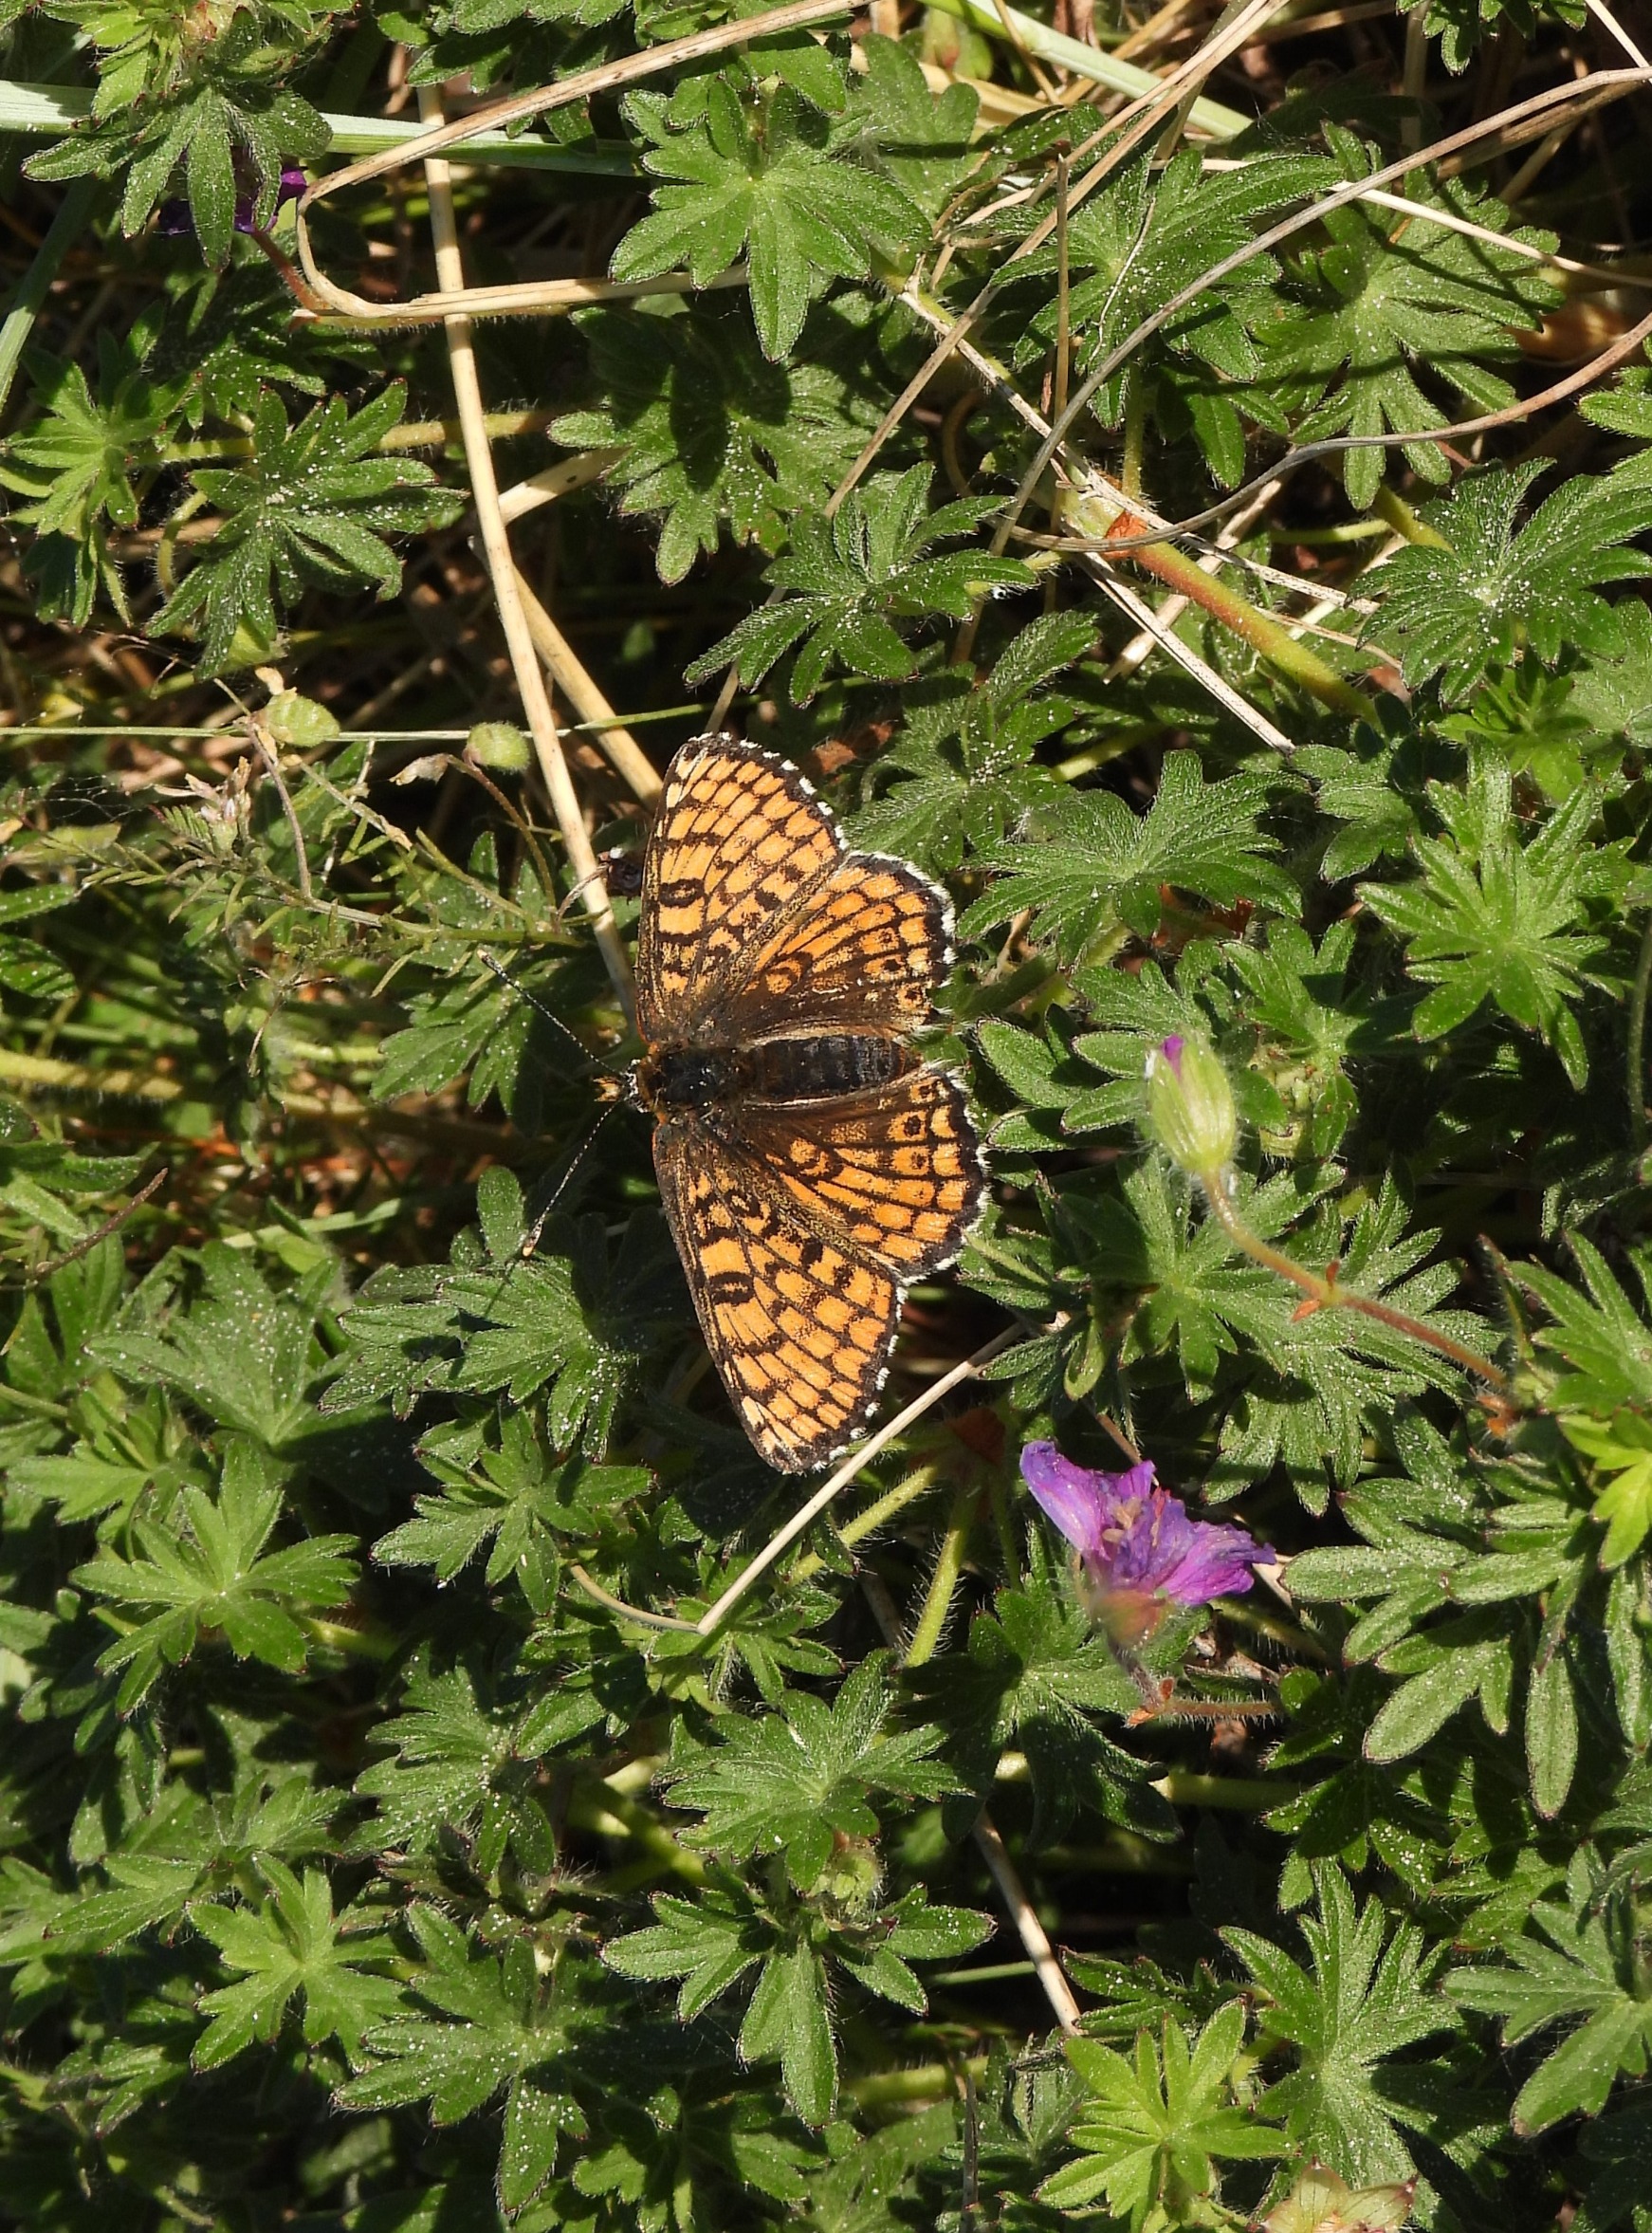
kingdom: Animalia
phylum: Arthropoda
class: Insecta
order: Lepidoptera
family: Nymphalidae
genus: Melitaea
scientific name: Melitaea cinxia
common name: Okkergul pletvinge
